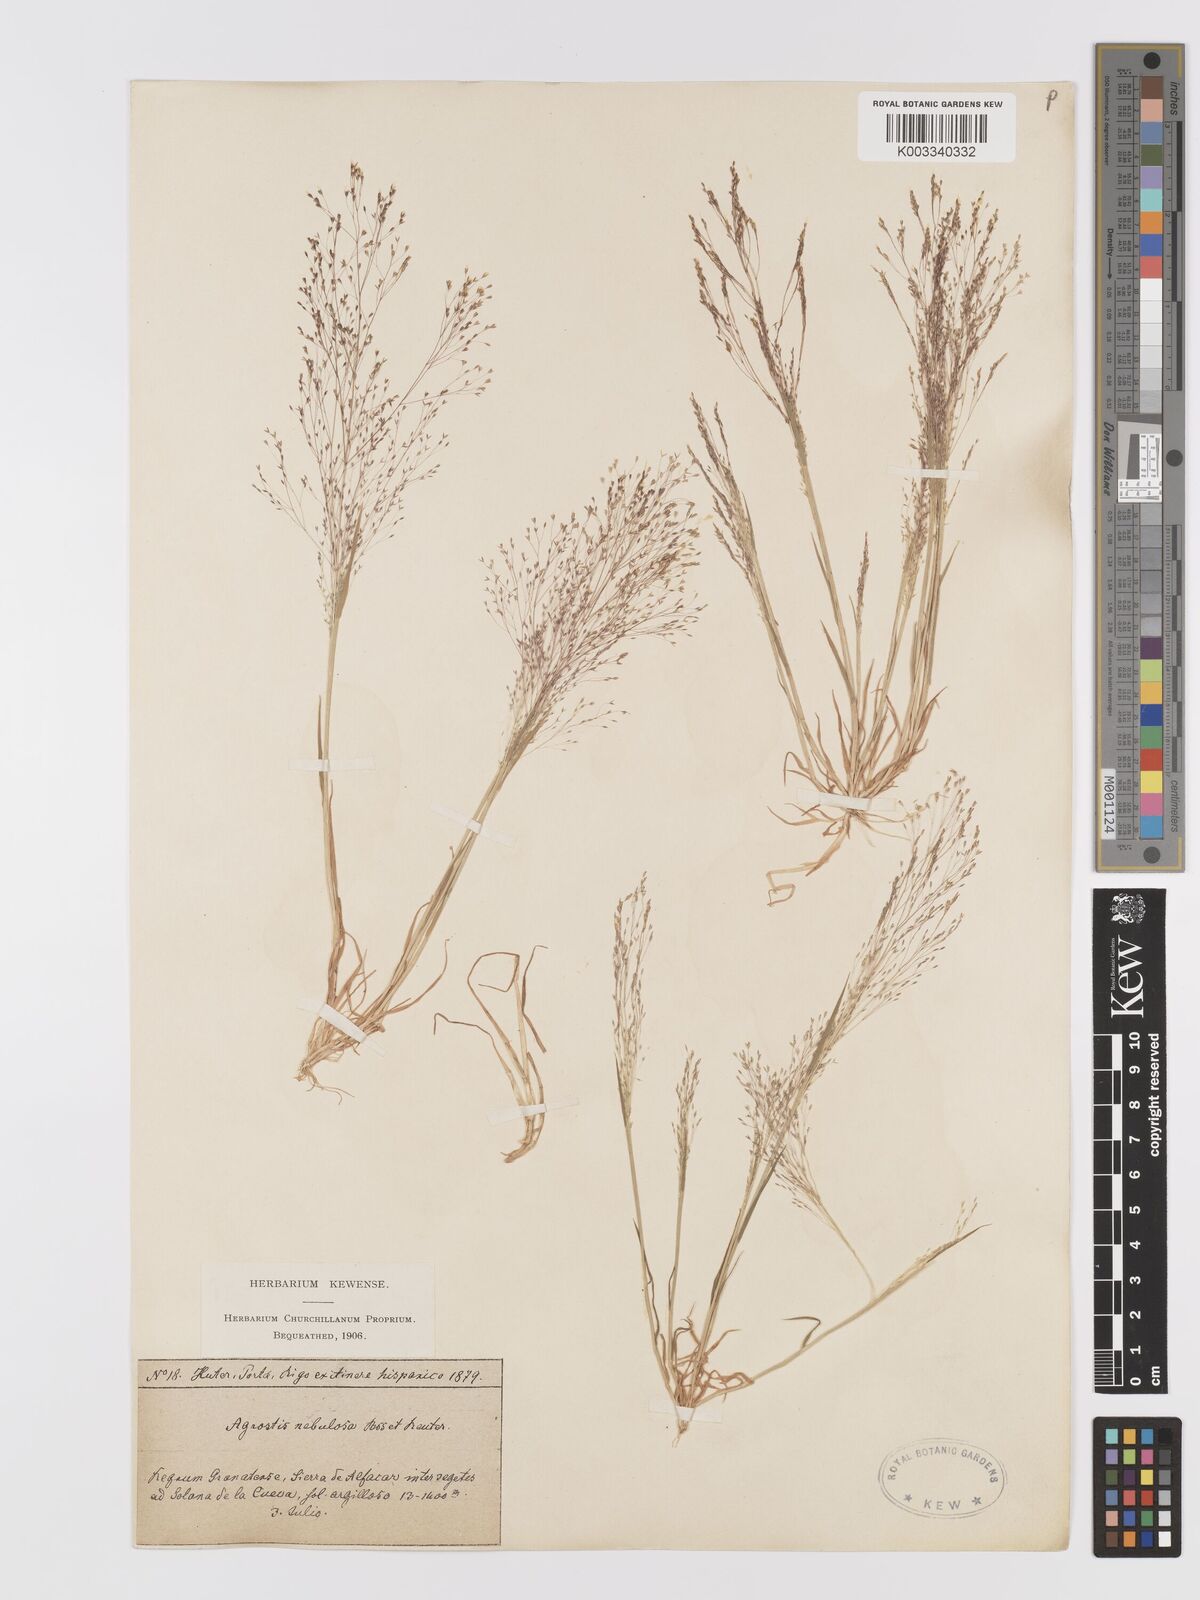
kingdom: Plantae
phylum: Tracheophyta
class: Liliopsida
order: Poales
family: Poaceae
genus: Agrostis
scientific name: Agrostis nebulosa
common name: Cloud grass
